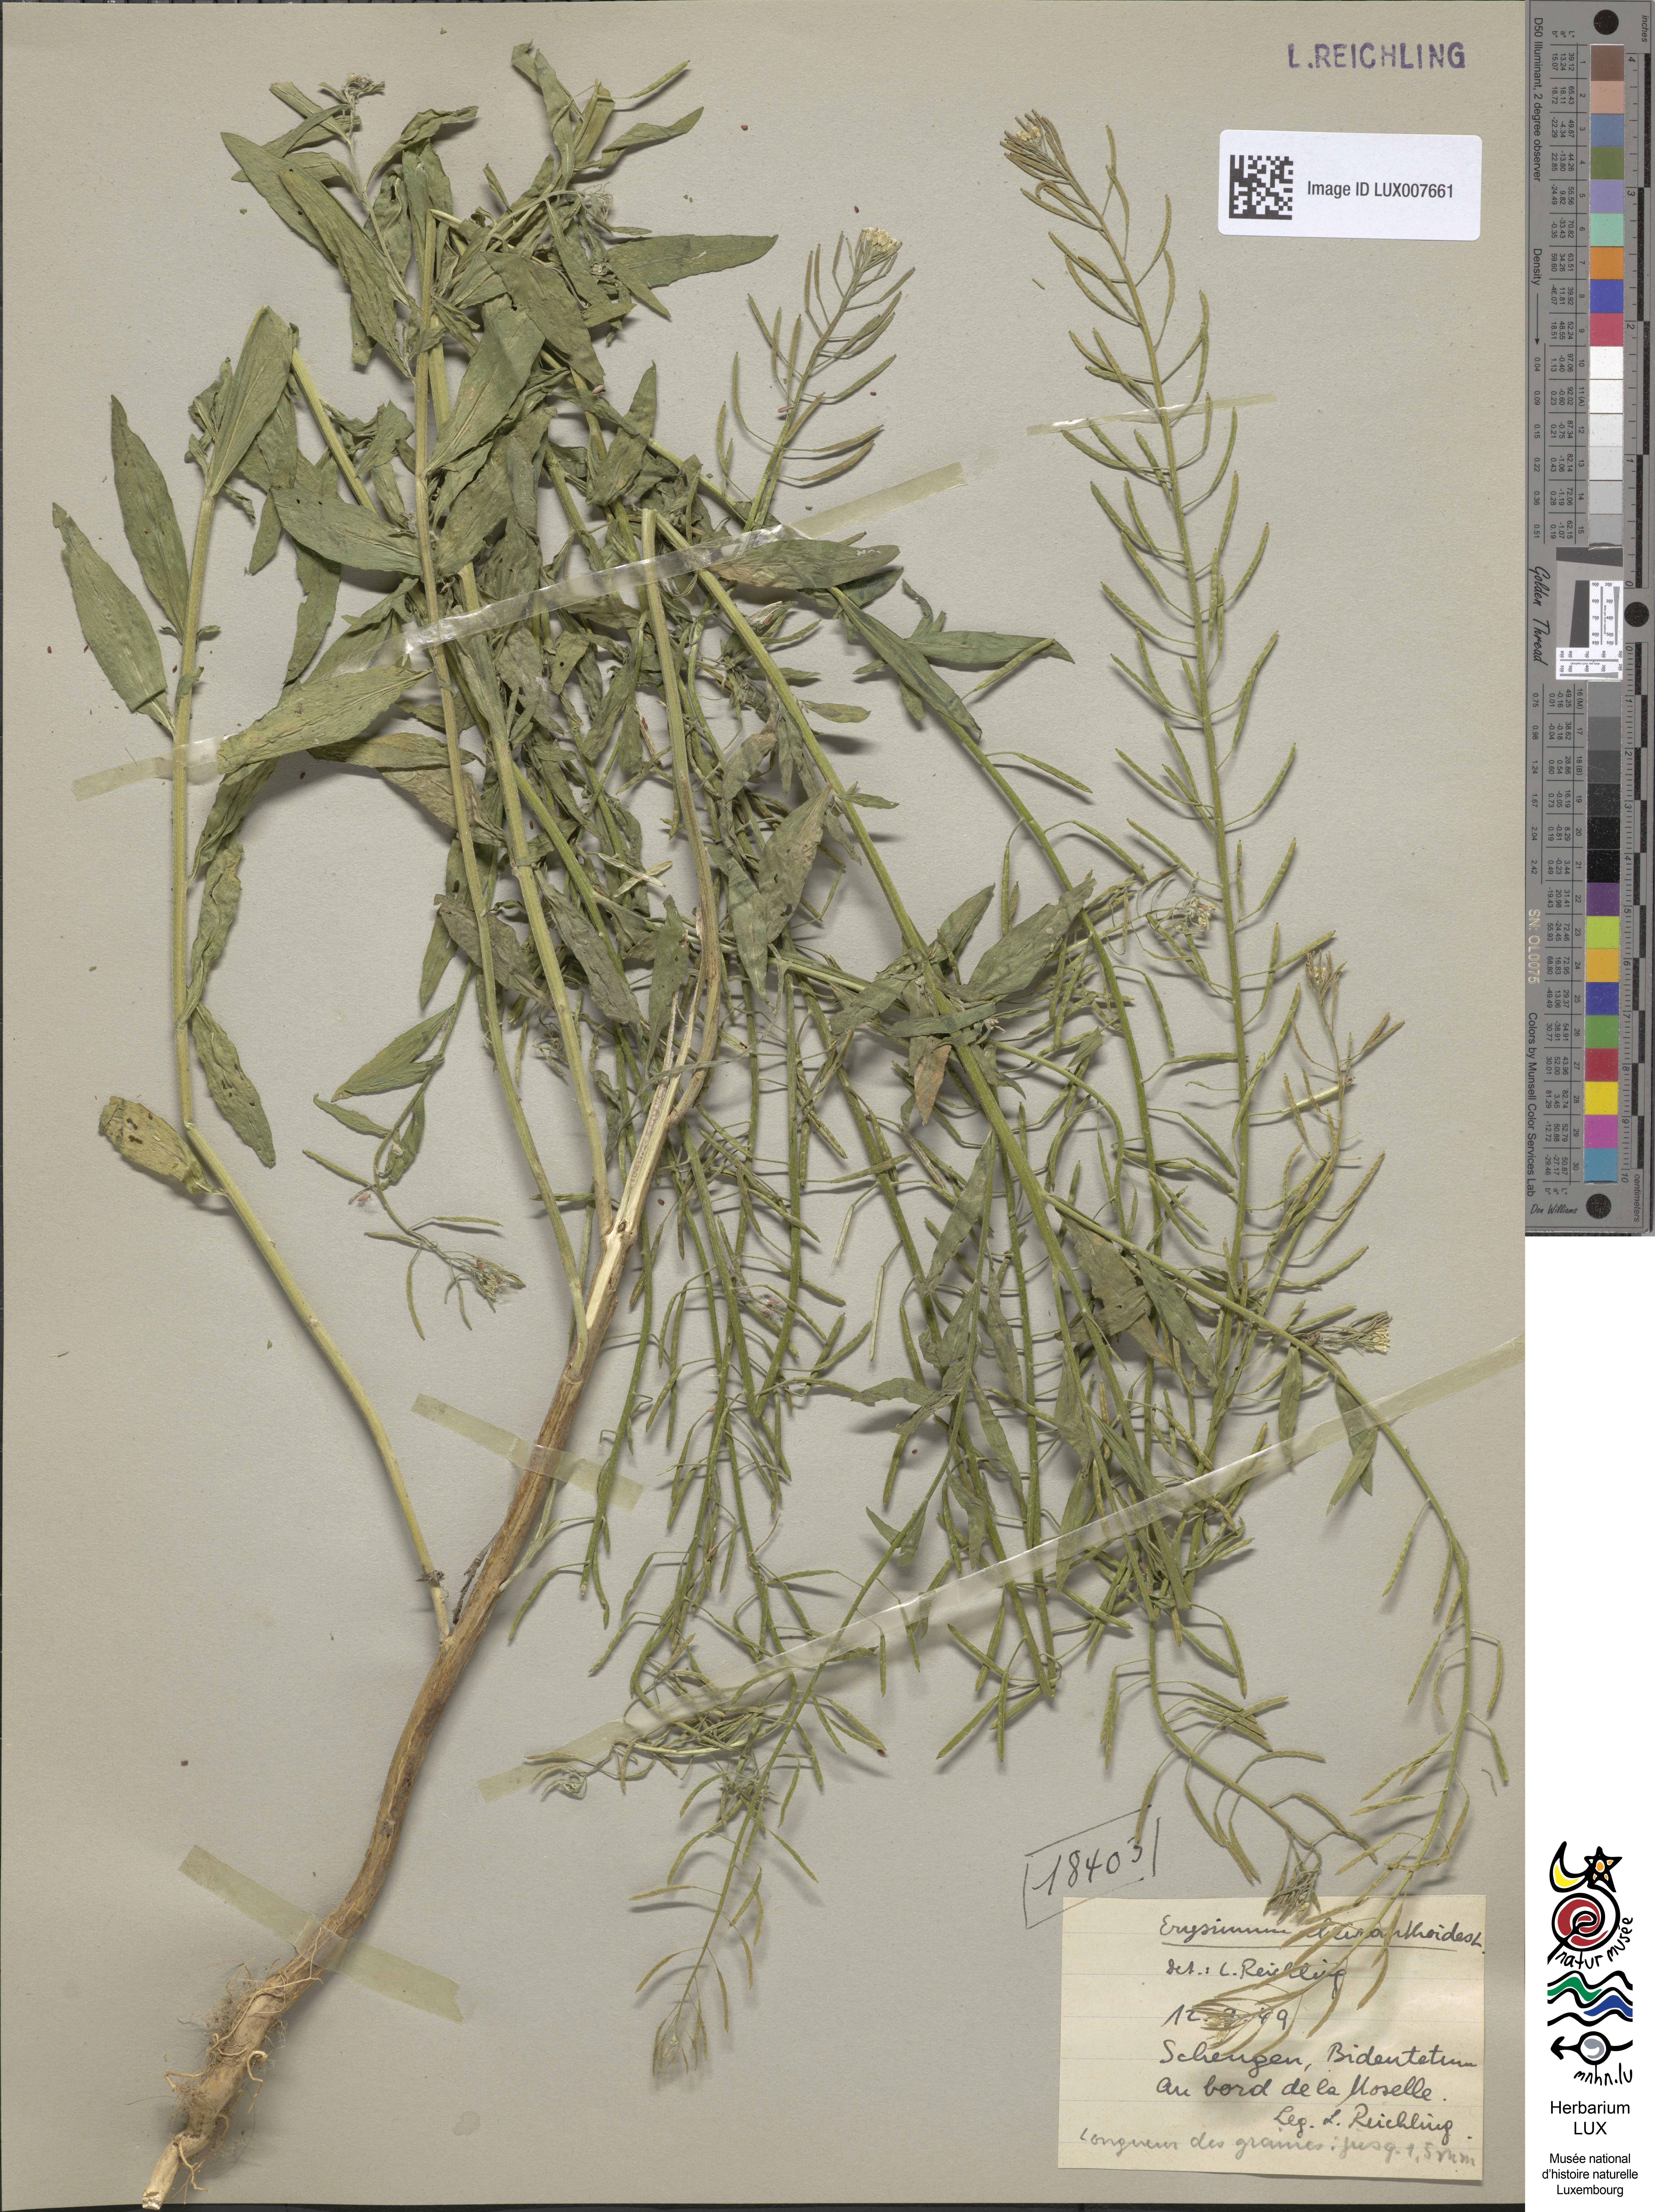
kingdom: Plantae
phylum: Tracheophyta
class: Magnoliopsida
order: Brassicales
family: Brassicaceae
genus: Erysimum
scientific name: Erysimum cheiranthoides
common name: Treacle mustard
